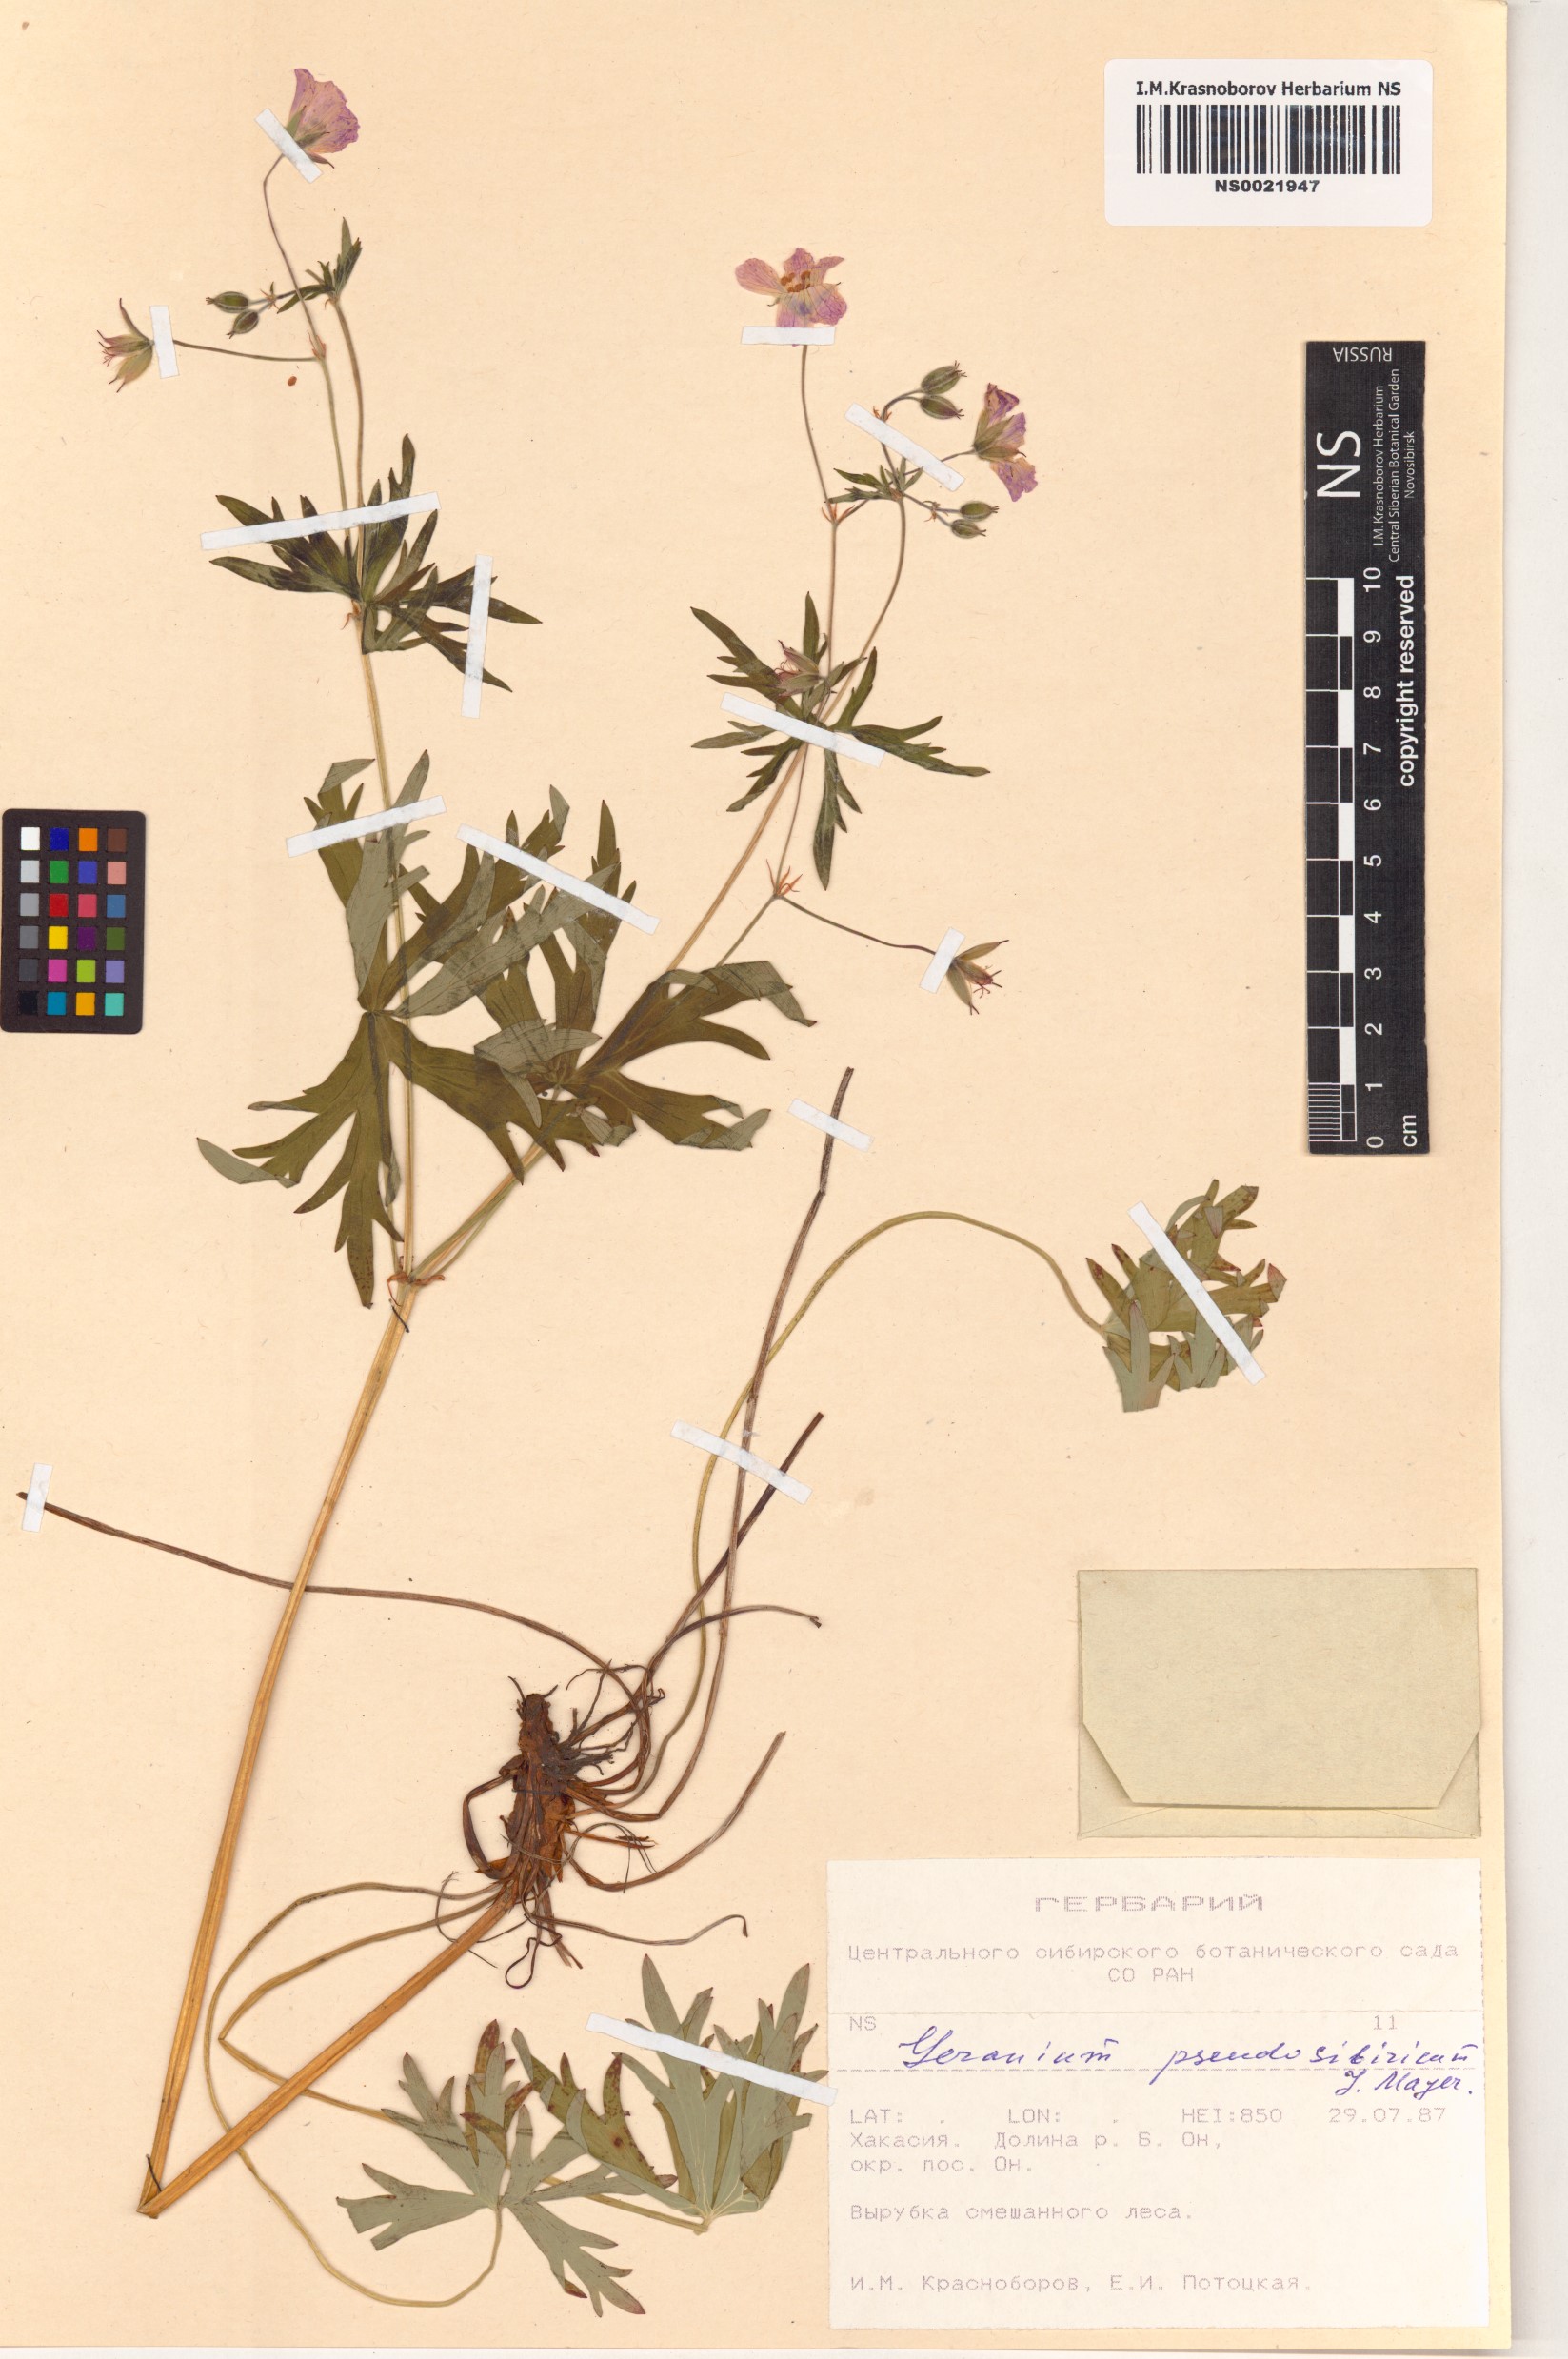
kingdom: Plantae
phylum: Tracheophyta
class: Magnoliopsida
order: Geraniales
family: Geraniaceae
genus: Geranium
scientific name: Geranium pseudosibiricum
